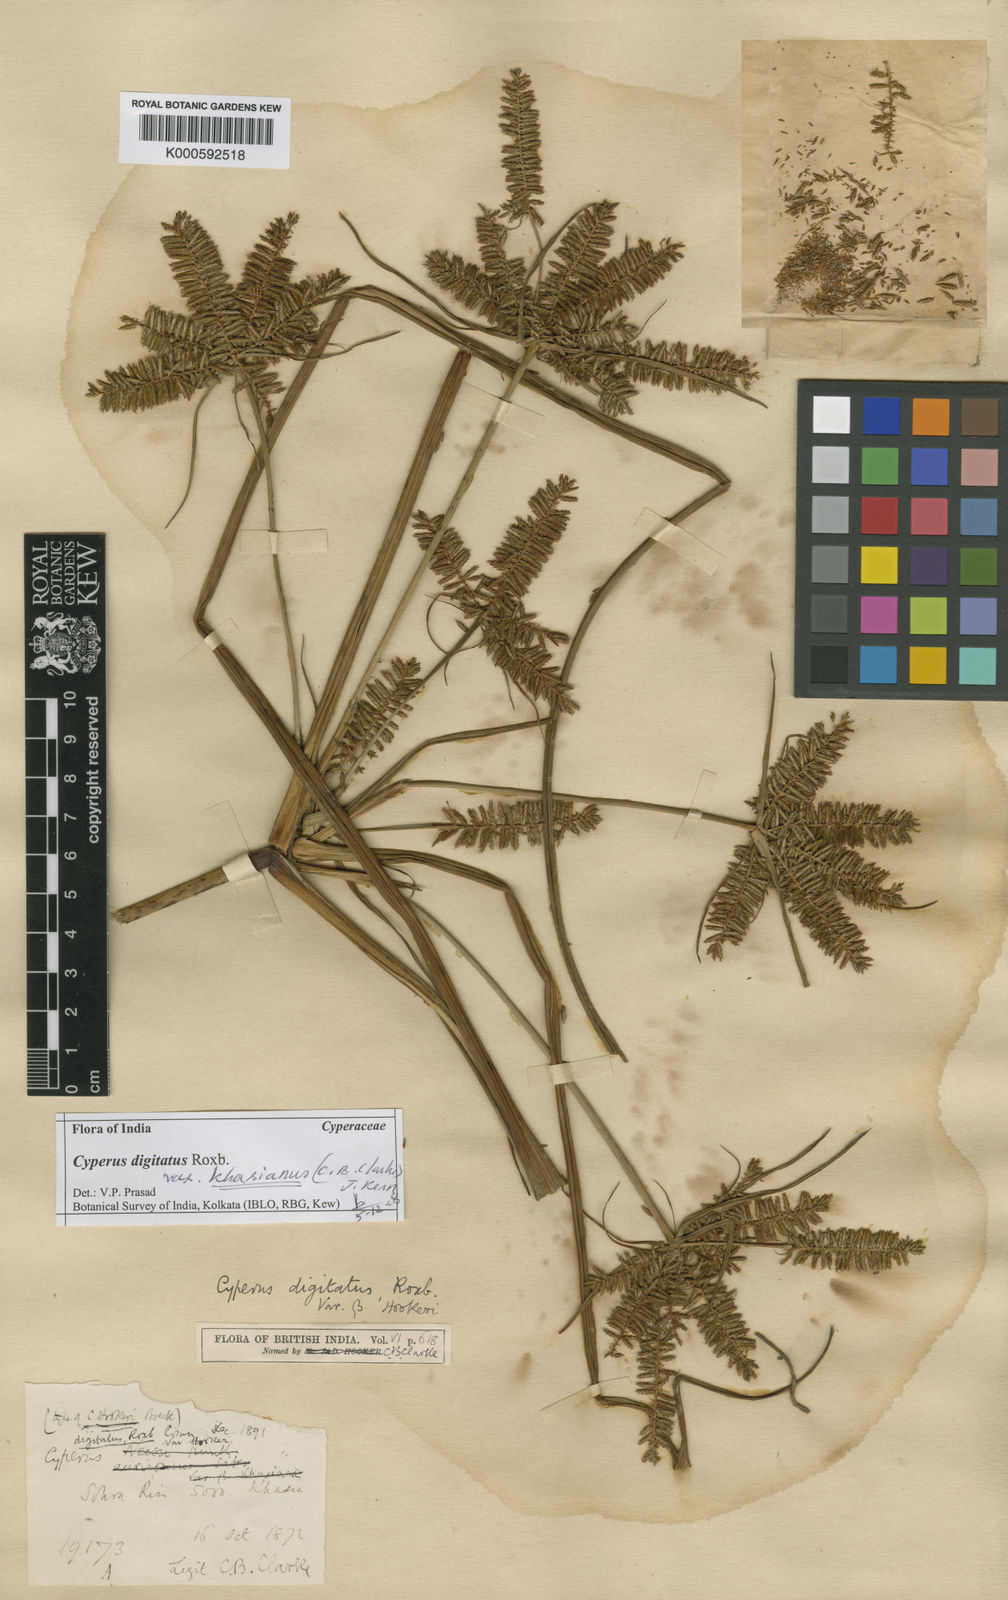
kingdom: Plantae
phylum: Tracheophyta
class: Liliopsida
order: Poales
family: Cyperaceae
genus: Cyperus
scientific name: Cyperus digitatus
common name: Finger flatsedge
